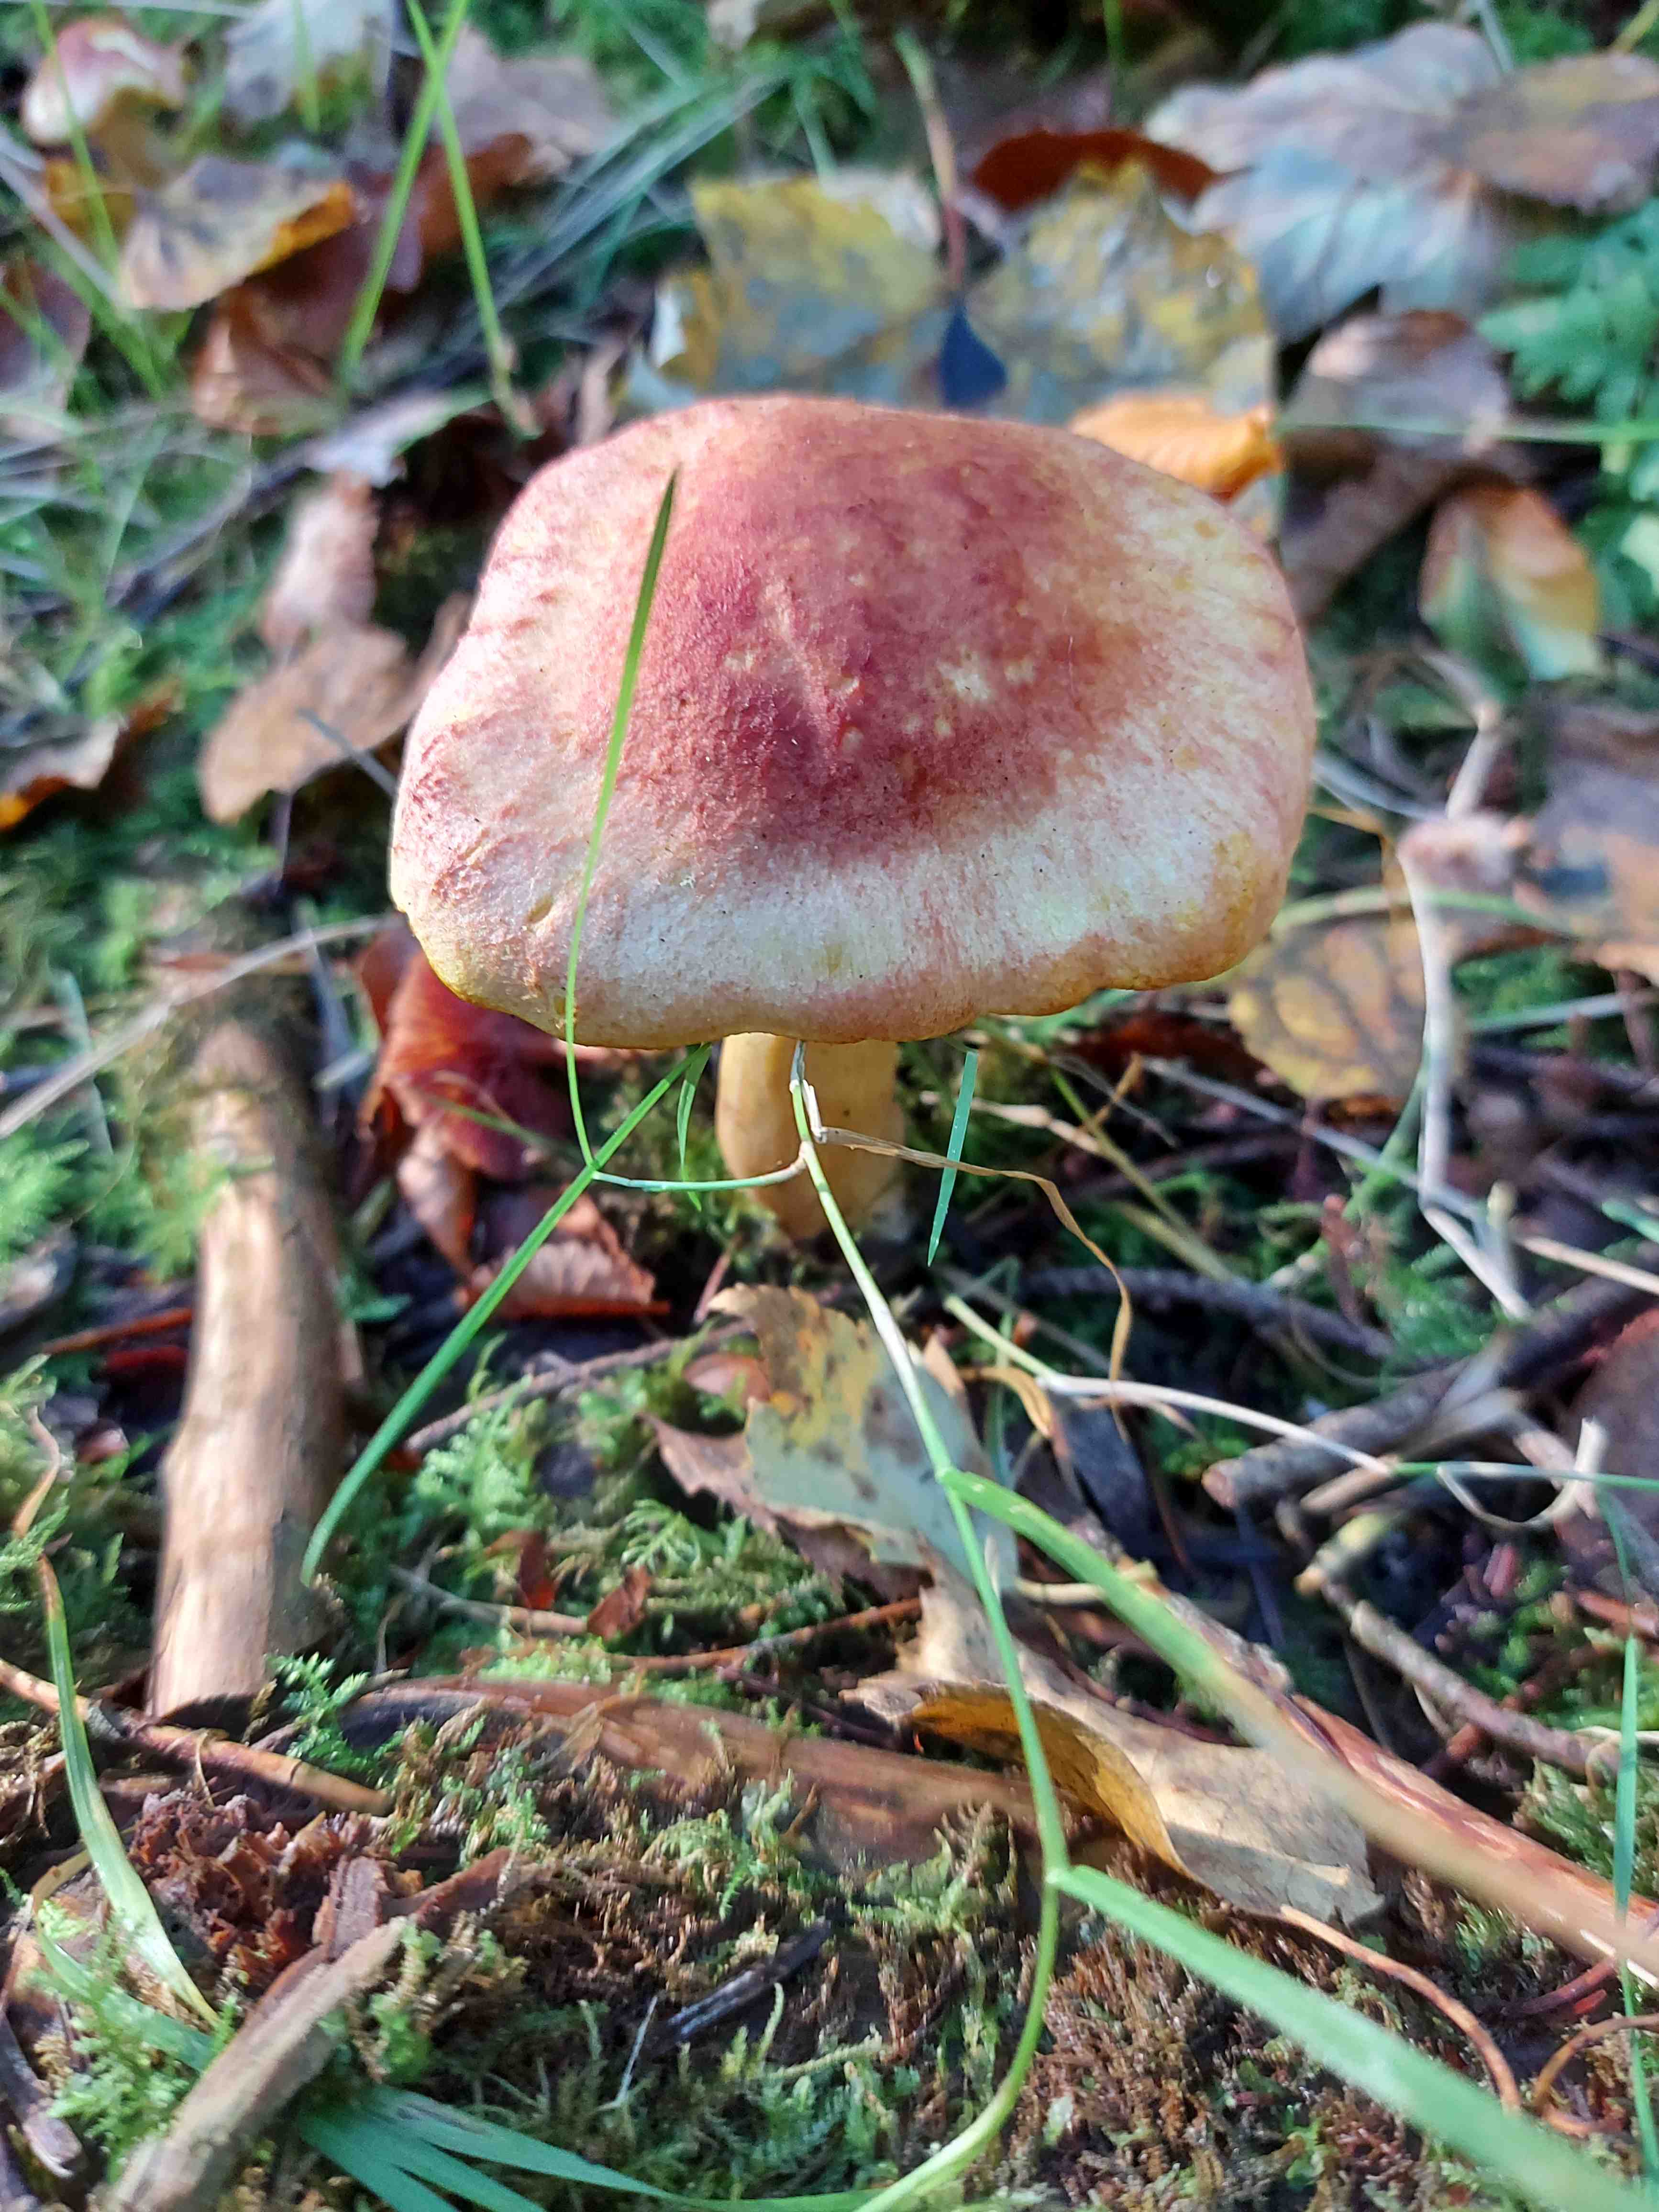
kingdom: Fungi
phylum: Basidiomycota
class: Agaricomycetes
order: Agaricales
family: Tricholomataceae
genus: Tricholomopsis
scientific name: Tricholomopsis rutilans
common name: purpur-væbnerhat
